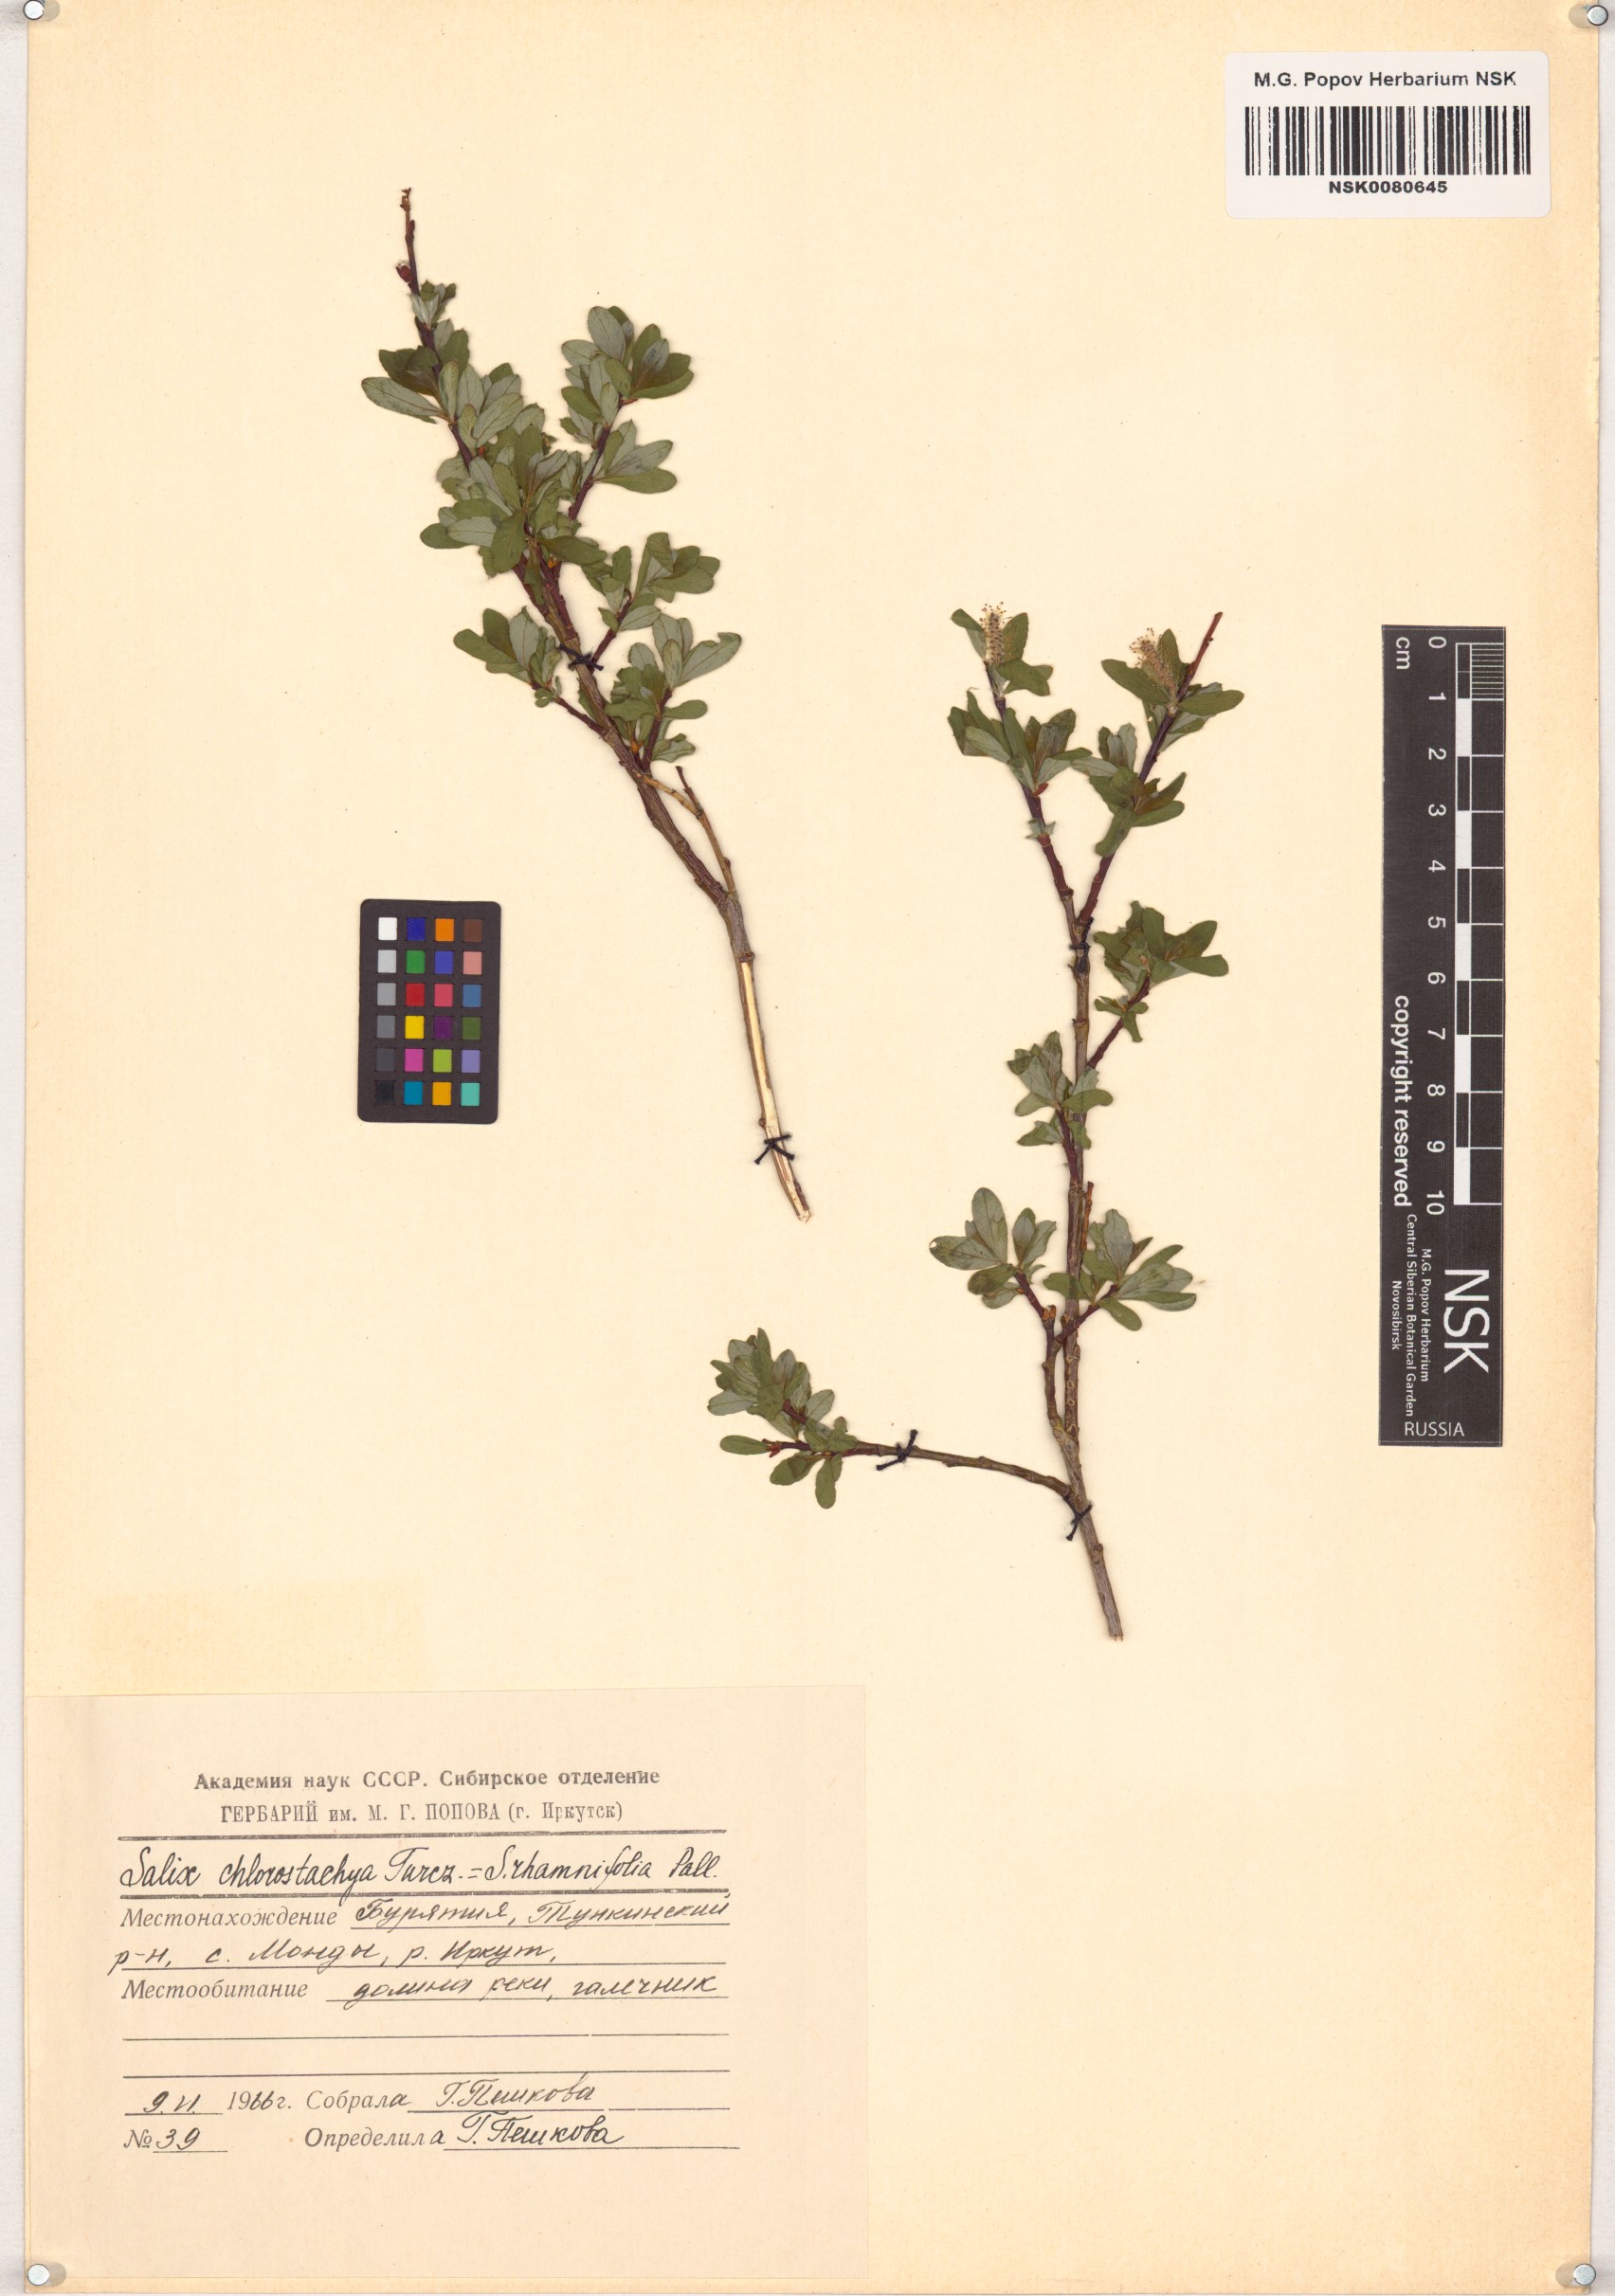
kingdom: Plantae
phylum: Tracheophyta
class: Magnoliopsida
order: Malpighiales
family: Salicaceae
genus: Salix
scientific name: Salix rhamnifolia
